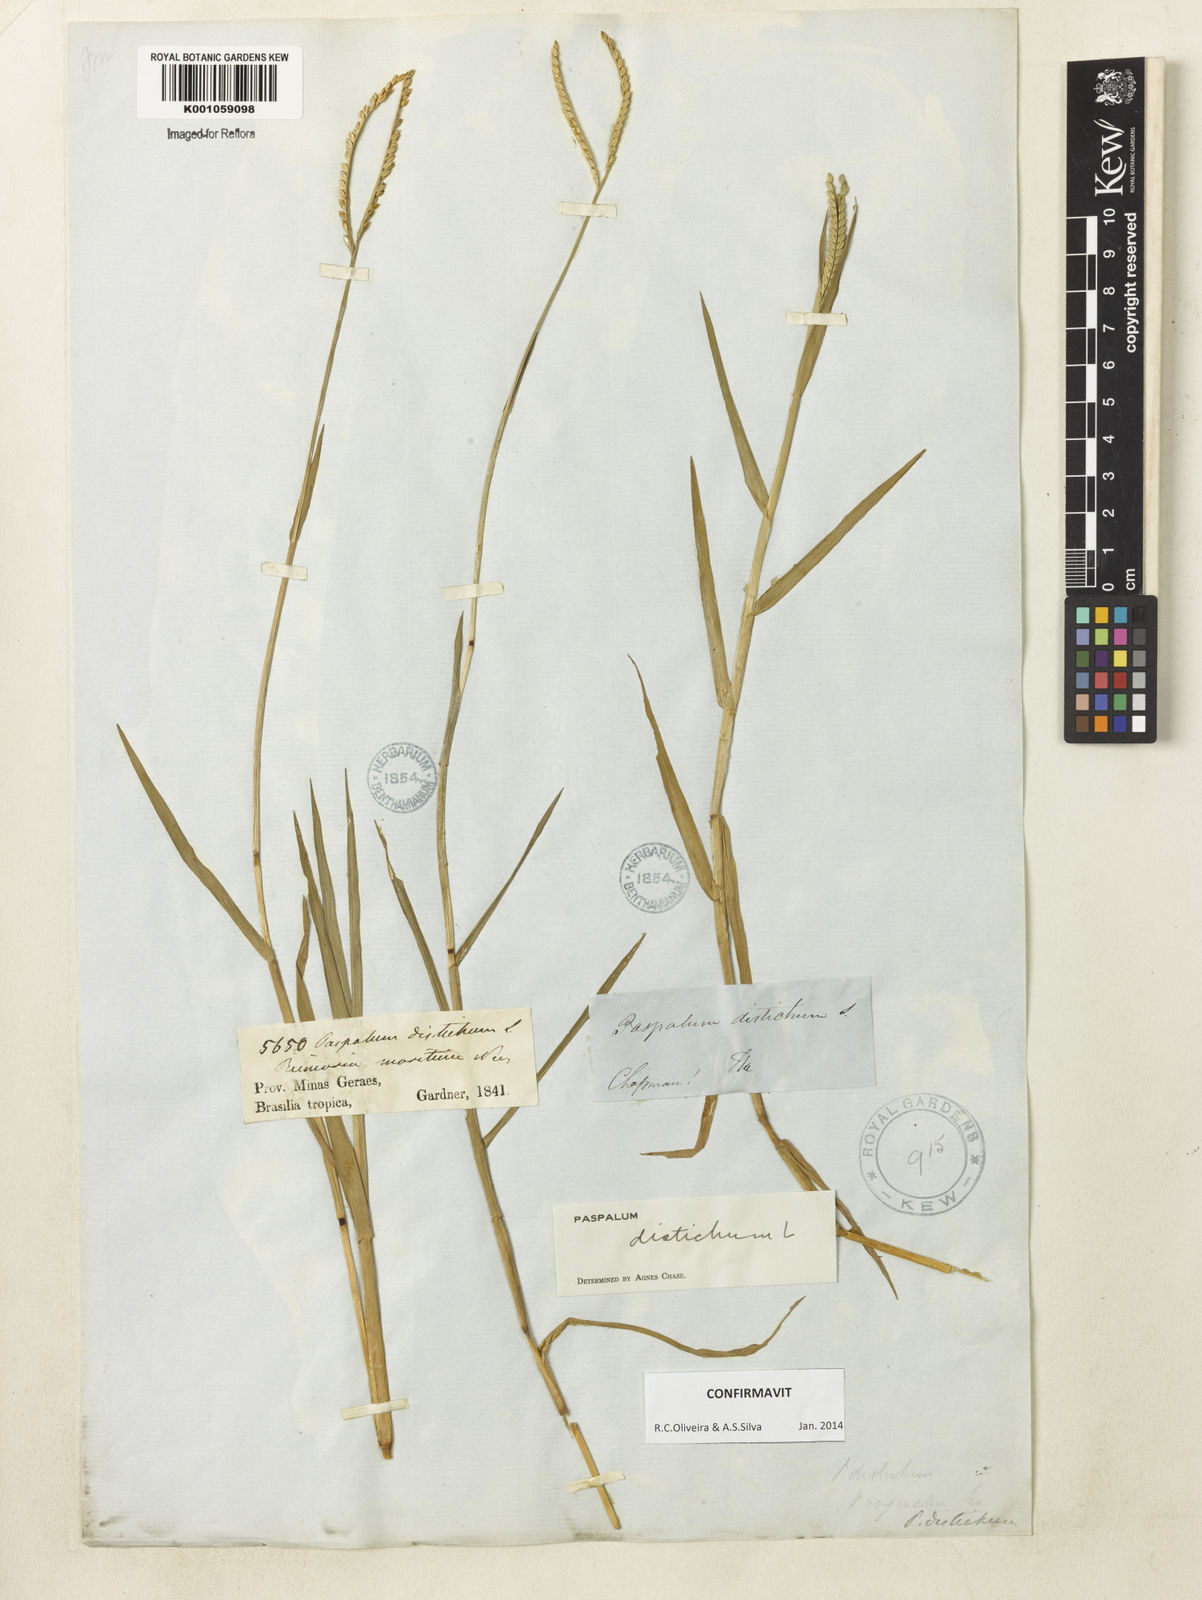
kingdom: Plantae
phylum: Tracheophyta
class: Liliopsida
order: Poales
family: Poaceae
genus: Paspalum
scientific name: Paspalum distichum
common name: Knotgrass
